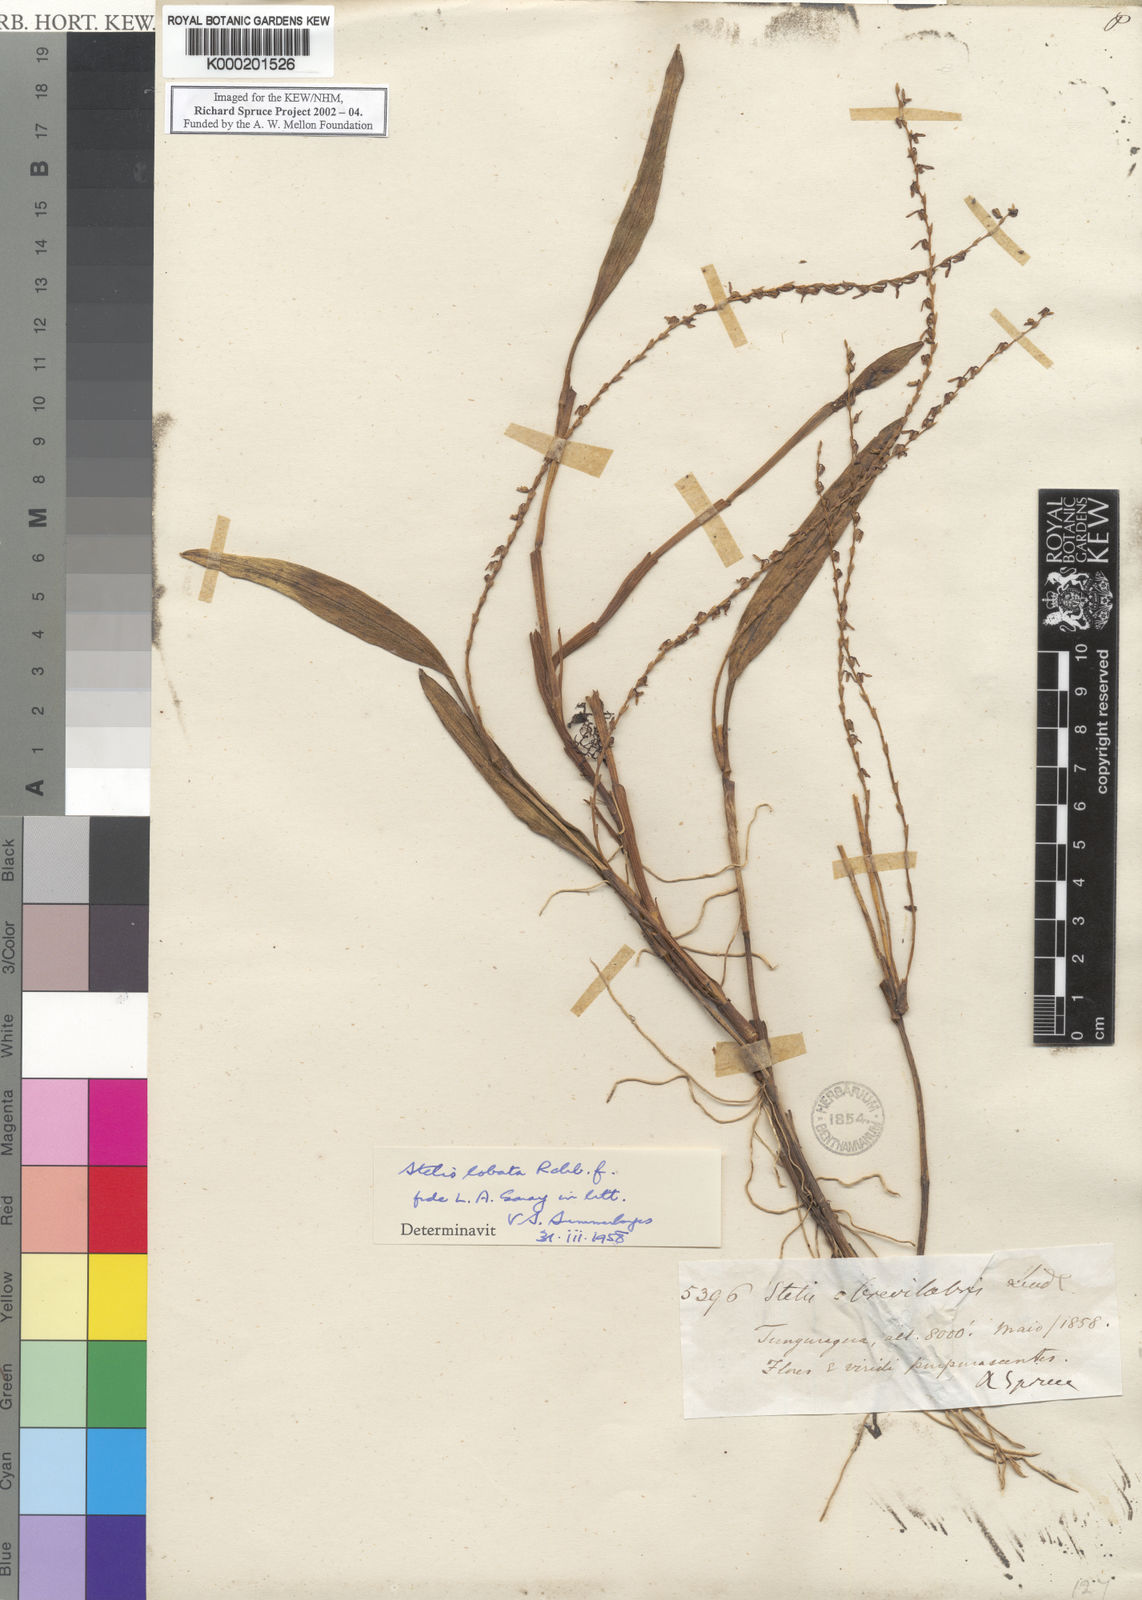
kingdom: Plantae
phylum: Tracheophyta
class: Liliopsida
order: Asparagales
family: Orchidaceae
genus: Stelis
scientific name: Stelis elongata
